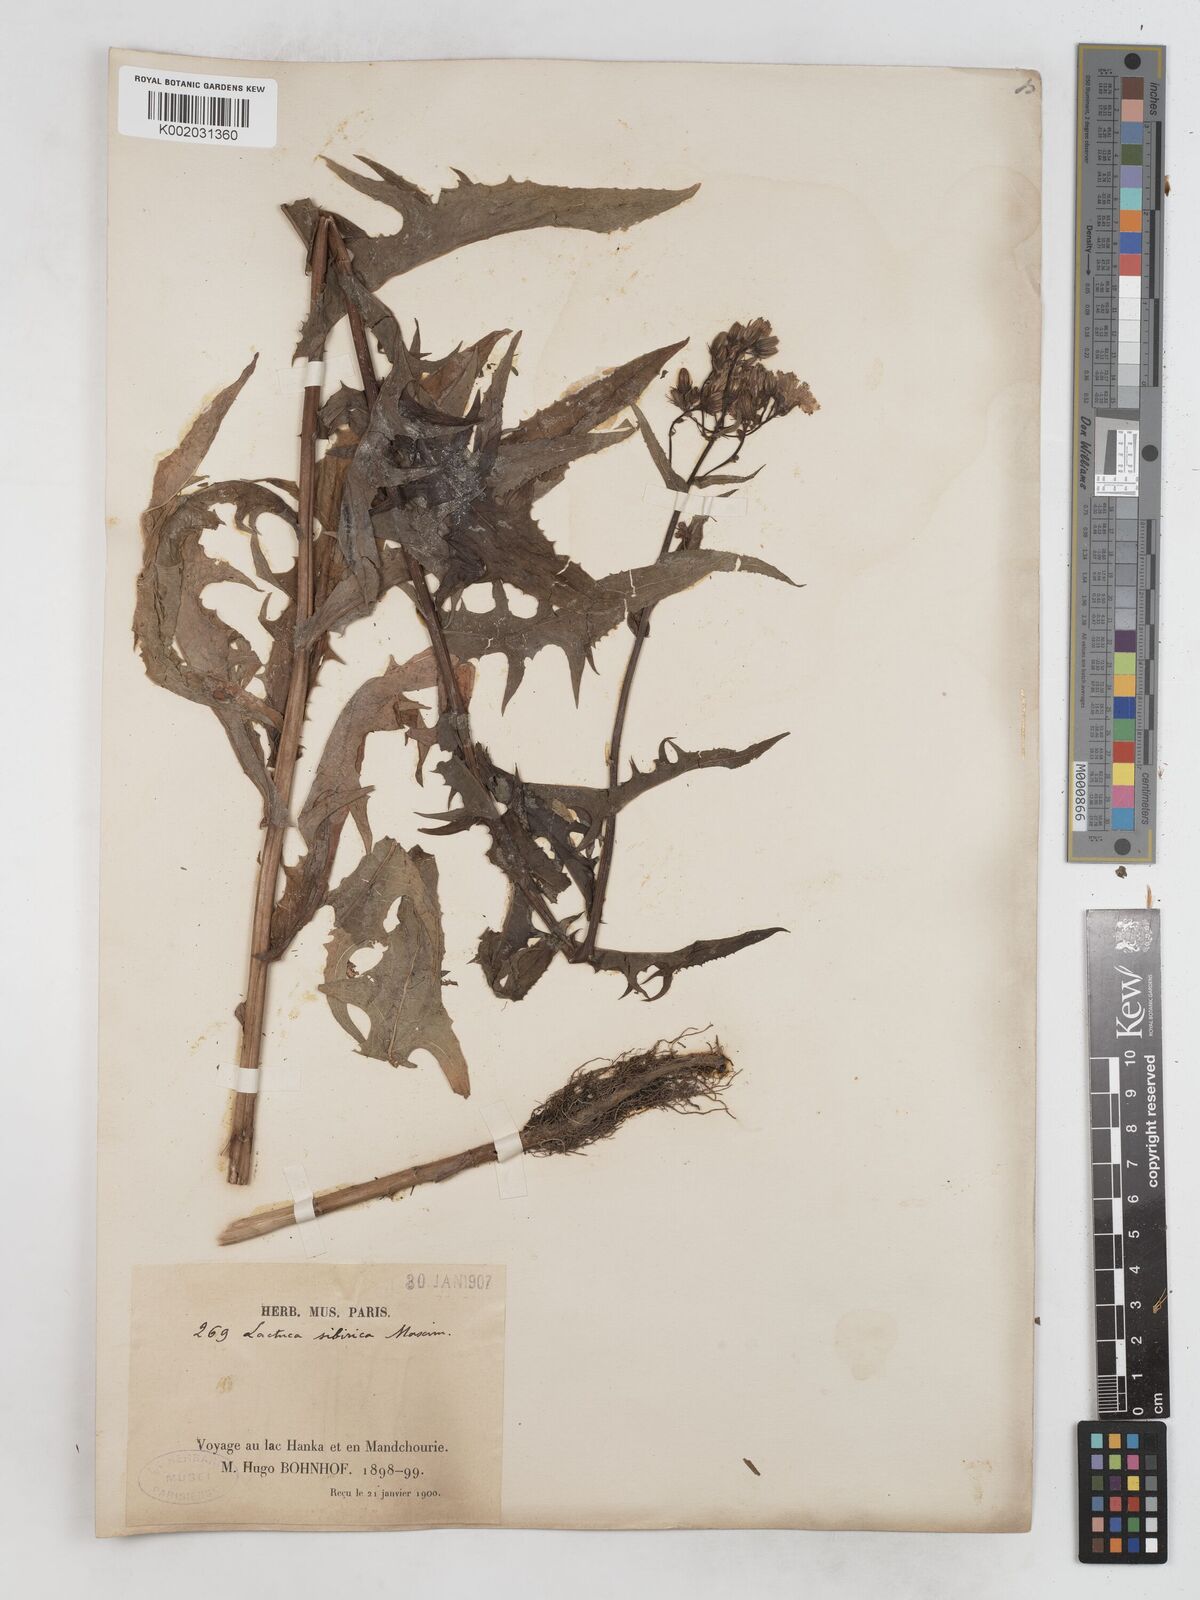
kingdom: Plantae
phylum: Tracheophyta
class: Magnoliopsida
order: Asterales
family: Asteraceae
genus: Lactuca
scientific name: Lactuca sibirica
